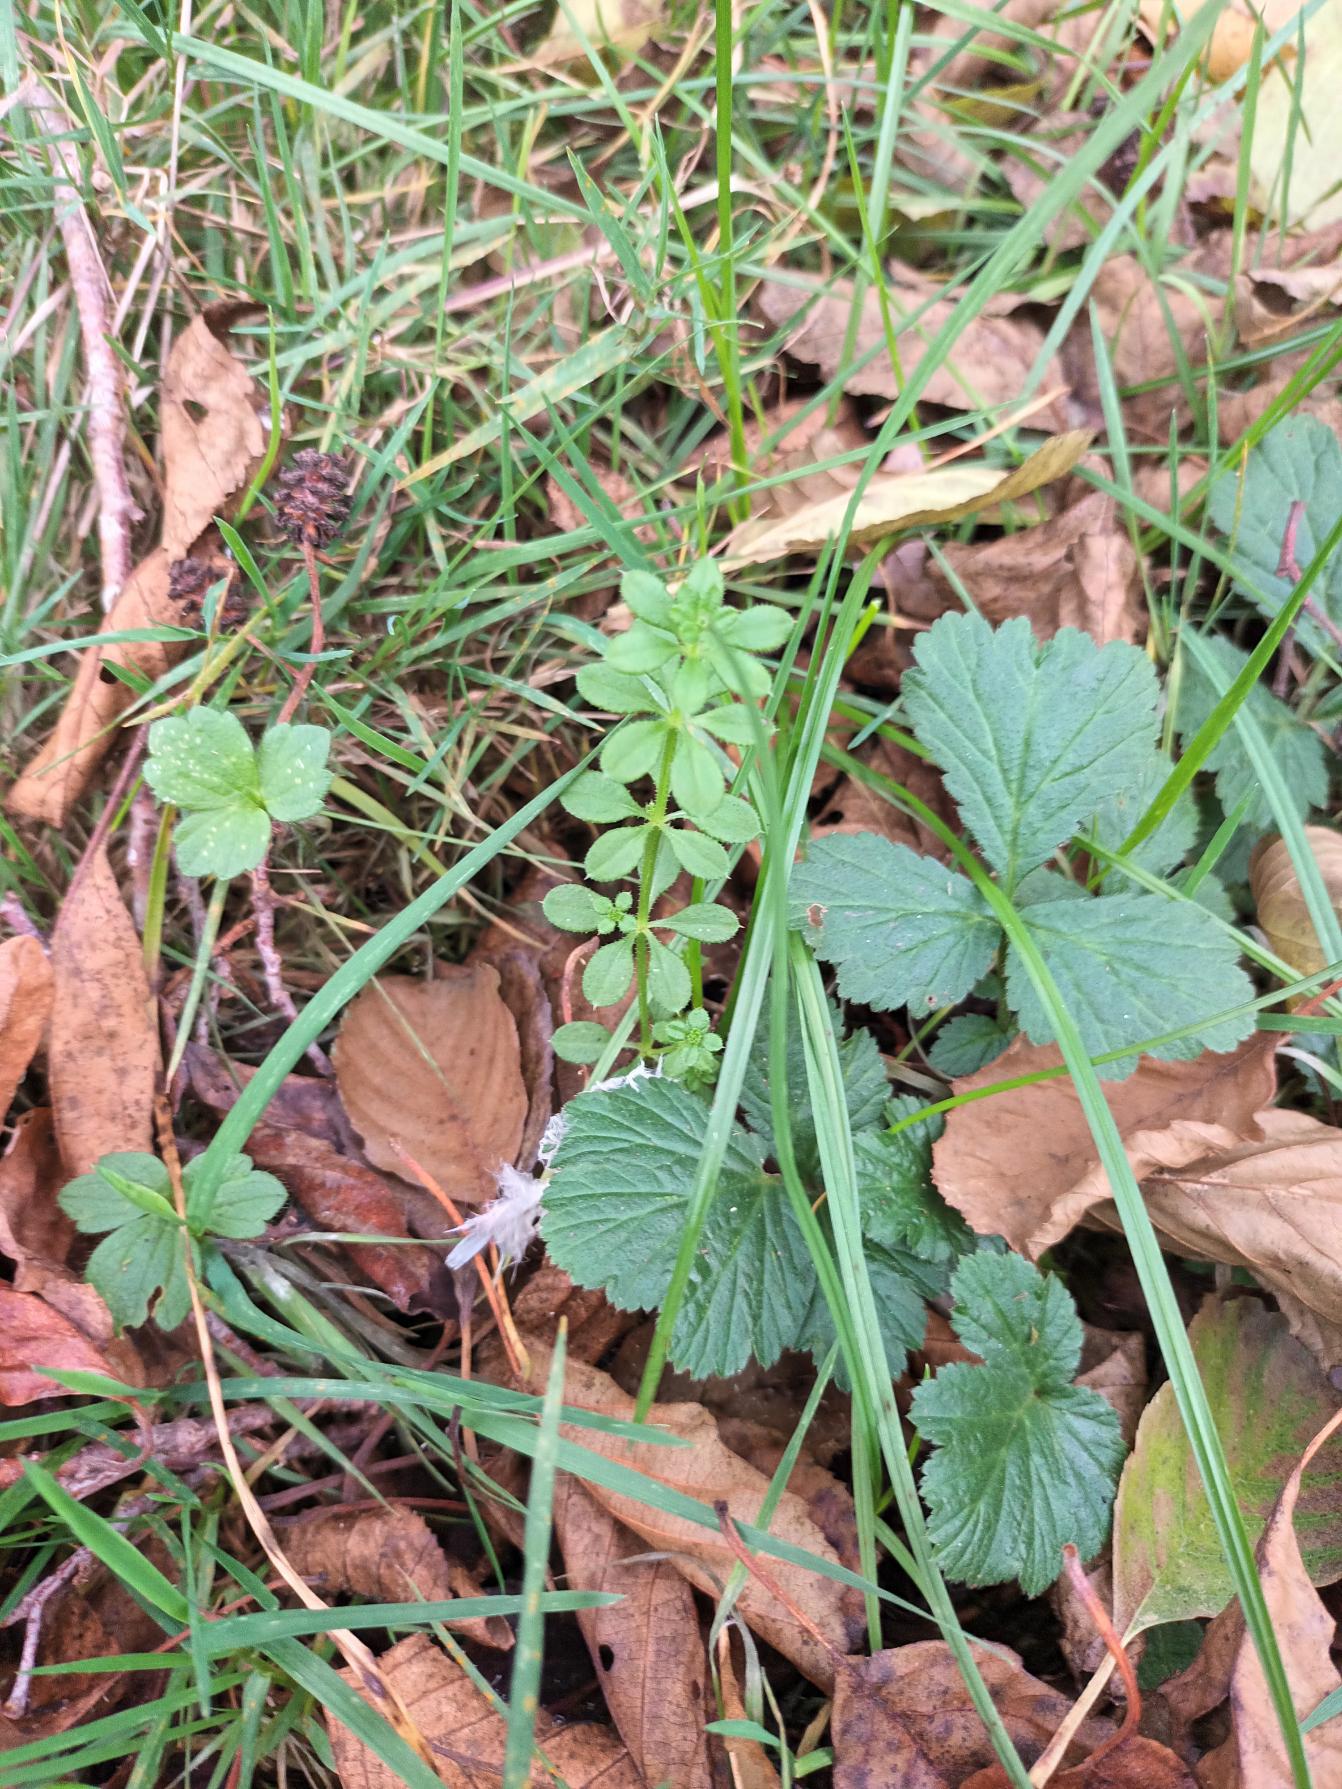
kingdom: Plantae
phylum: Tracheophyta
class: Magnoliopsida
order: Gentianales
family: Rubiaceae
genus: Galium
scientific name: Galium aparine
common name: Burre-snerre
